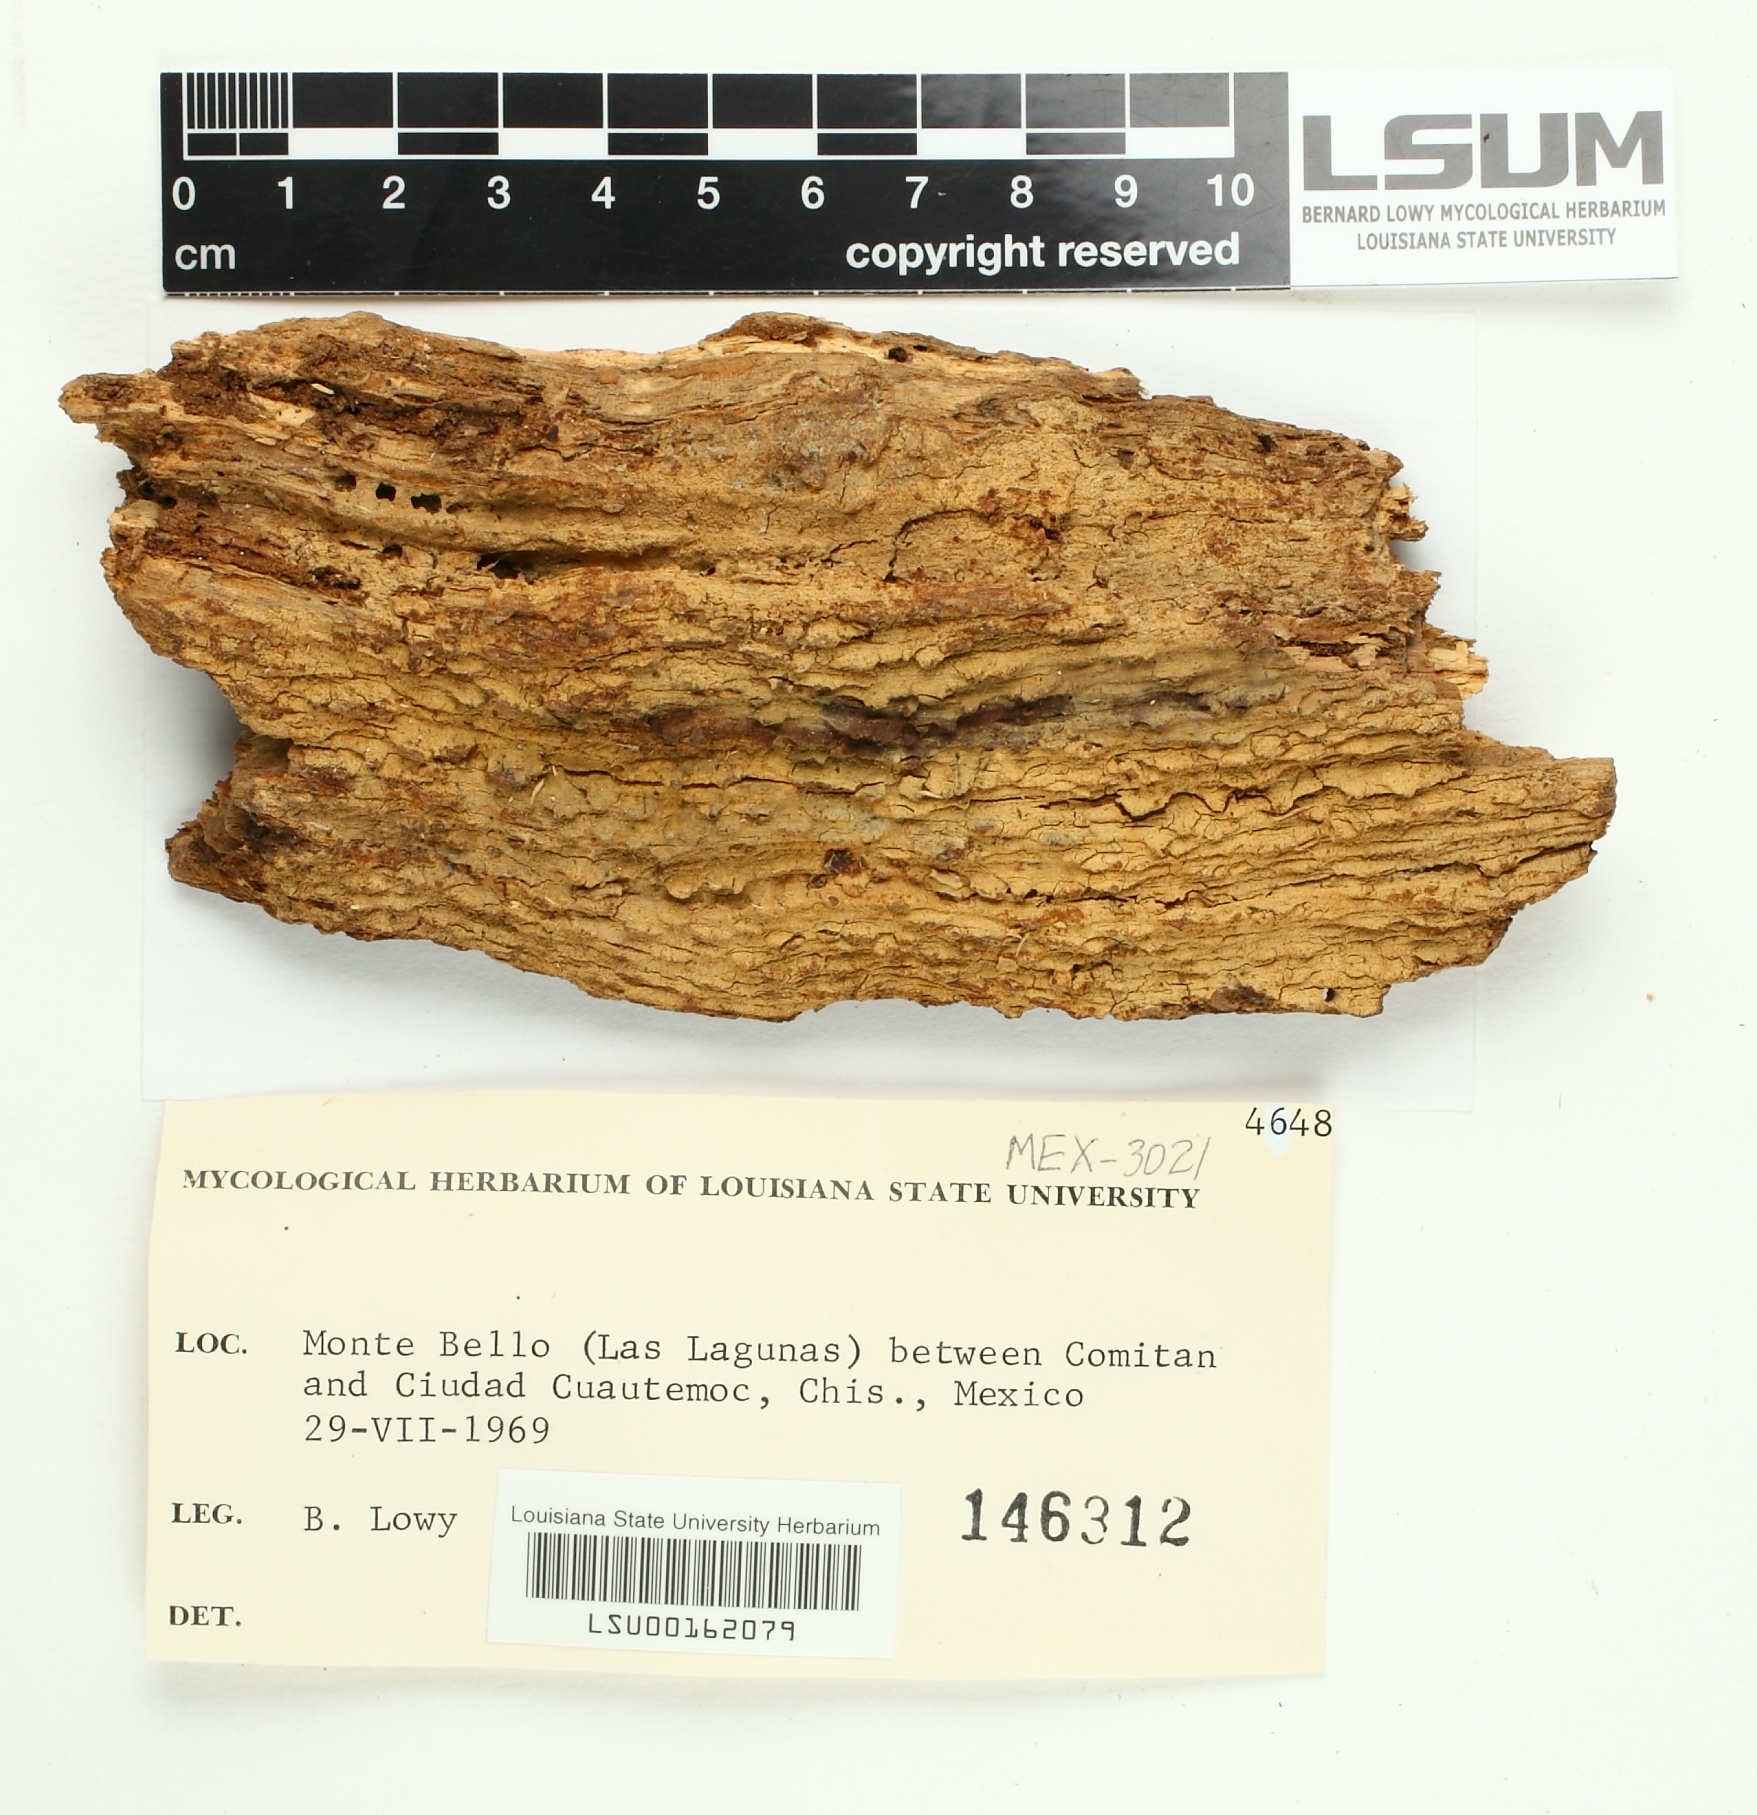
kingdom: Fungi
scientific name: Fungi
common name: Fungi
